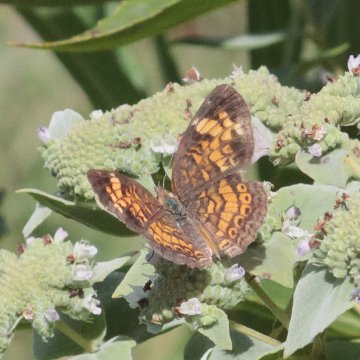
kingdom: Animalia
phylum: Arthropoda
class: Insecta
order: Lepidoptera
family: Nymphalidae
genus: Phyciodes
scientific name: Phyciodes tharos
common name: Pearl Crescent
